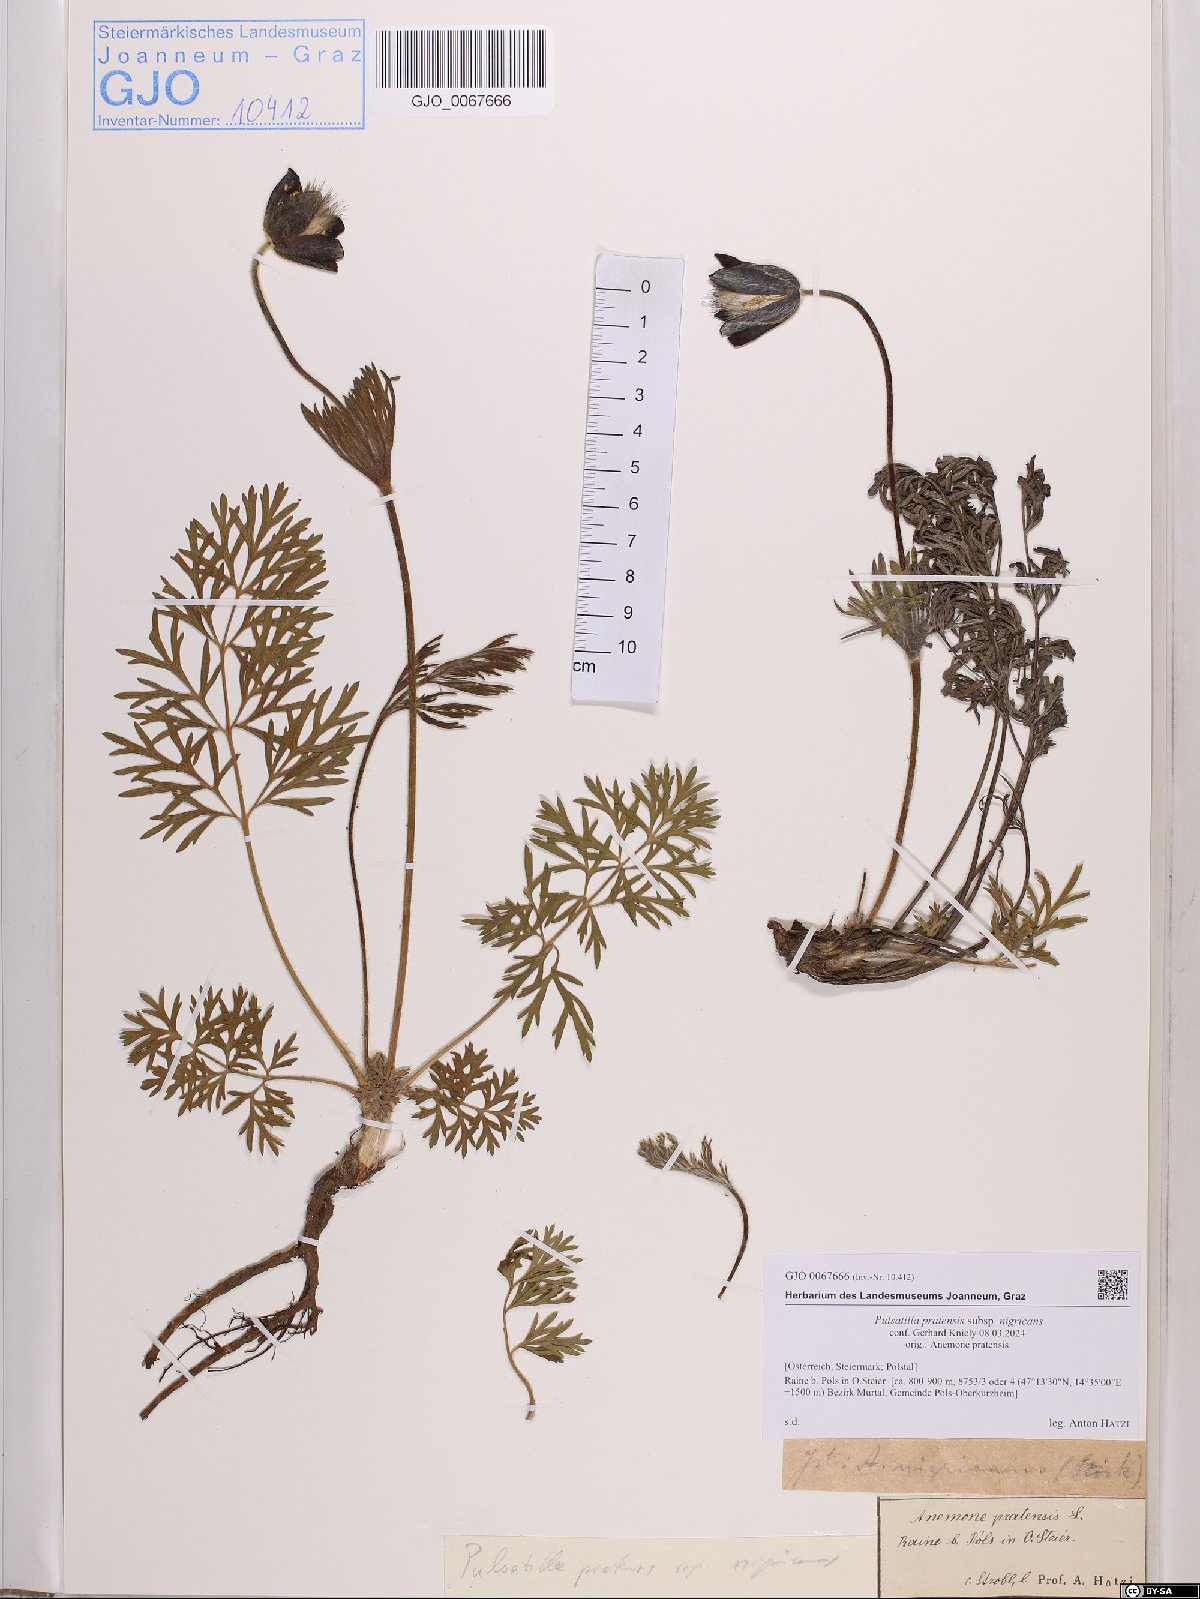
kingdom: Plantae
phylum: Tracheophyta
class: Magnoliopsida
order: Ranunculales
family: Ranunculaceae
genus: Pulsatilla
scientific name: Pulsatilla pratensis
